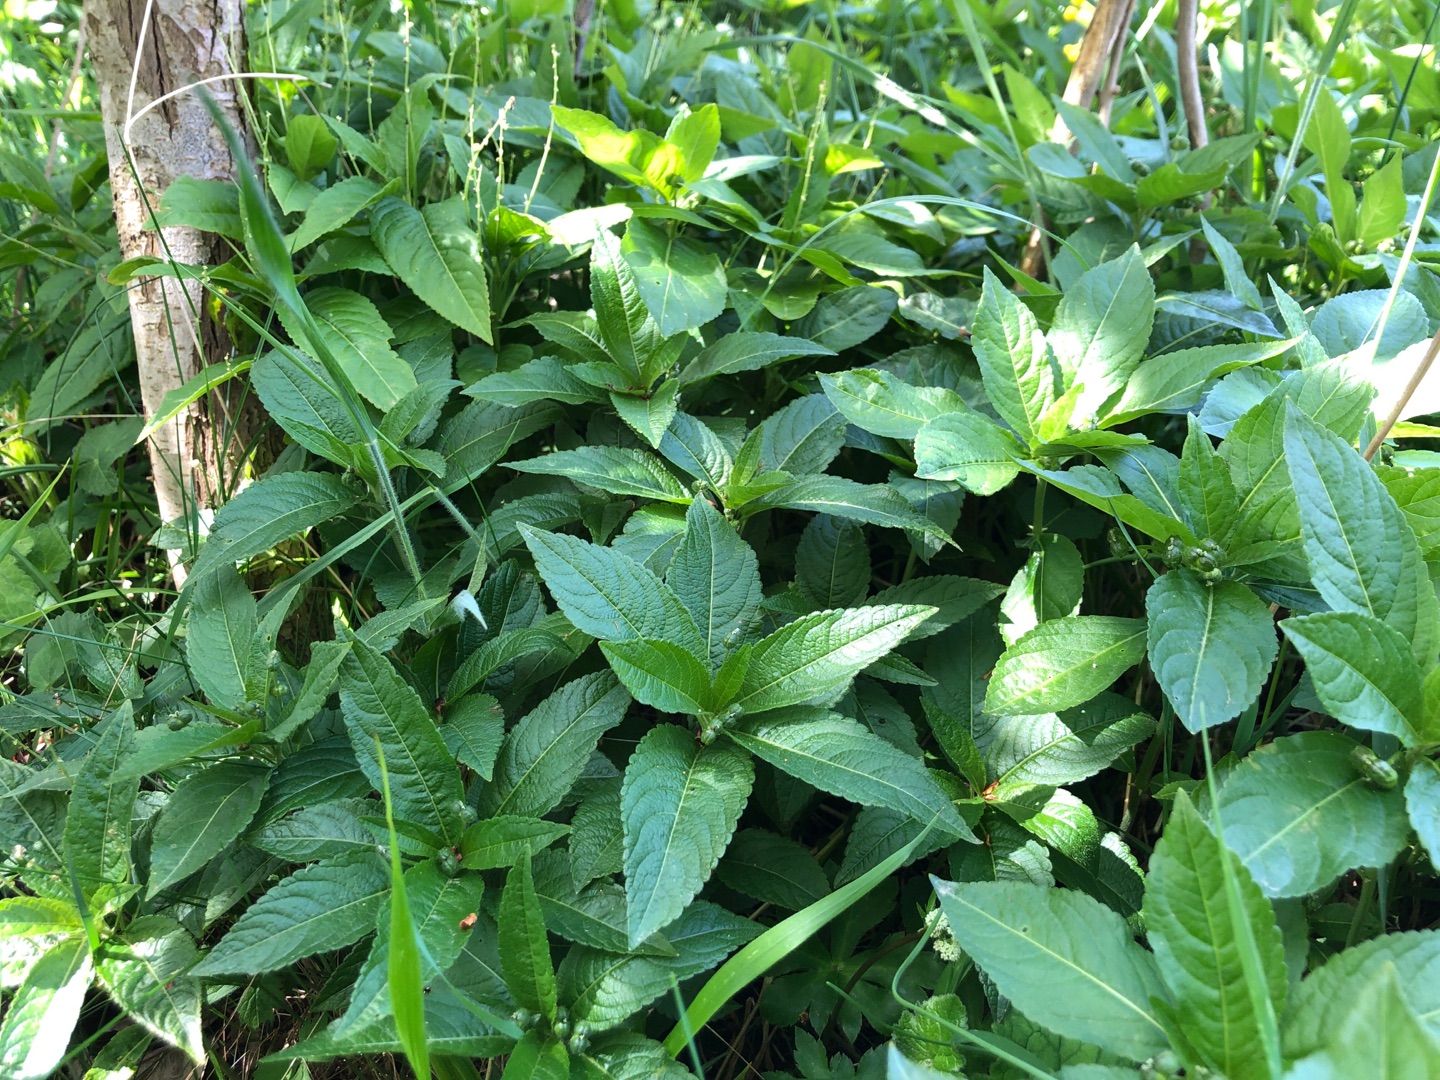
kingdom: Plantae
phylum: Tracheophyta
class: Magnoliopsida
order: Malpighiales
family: Euphorbiaceae
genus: Mercurialis
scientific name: Mercurialis perennis
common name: Almindelig bingelurt
